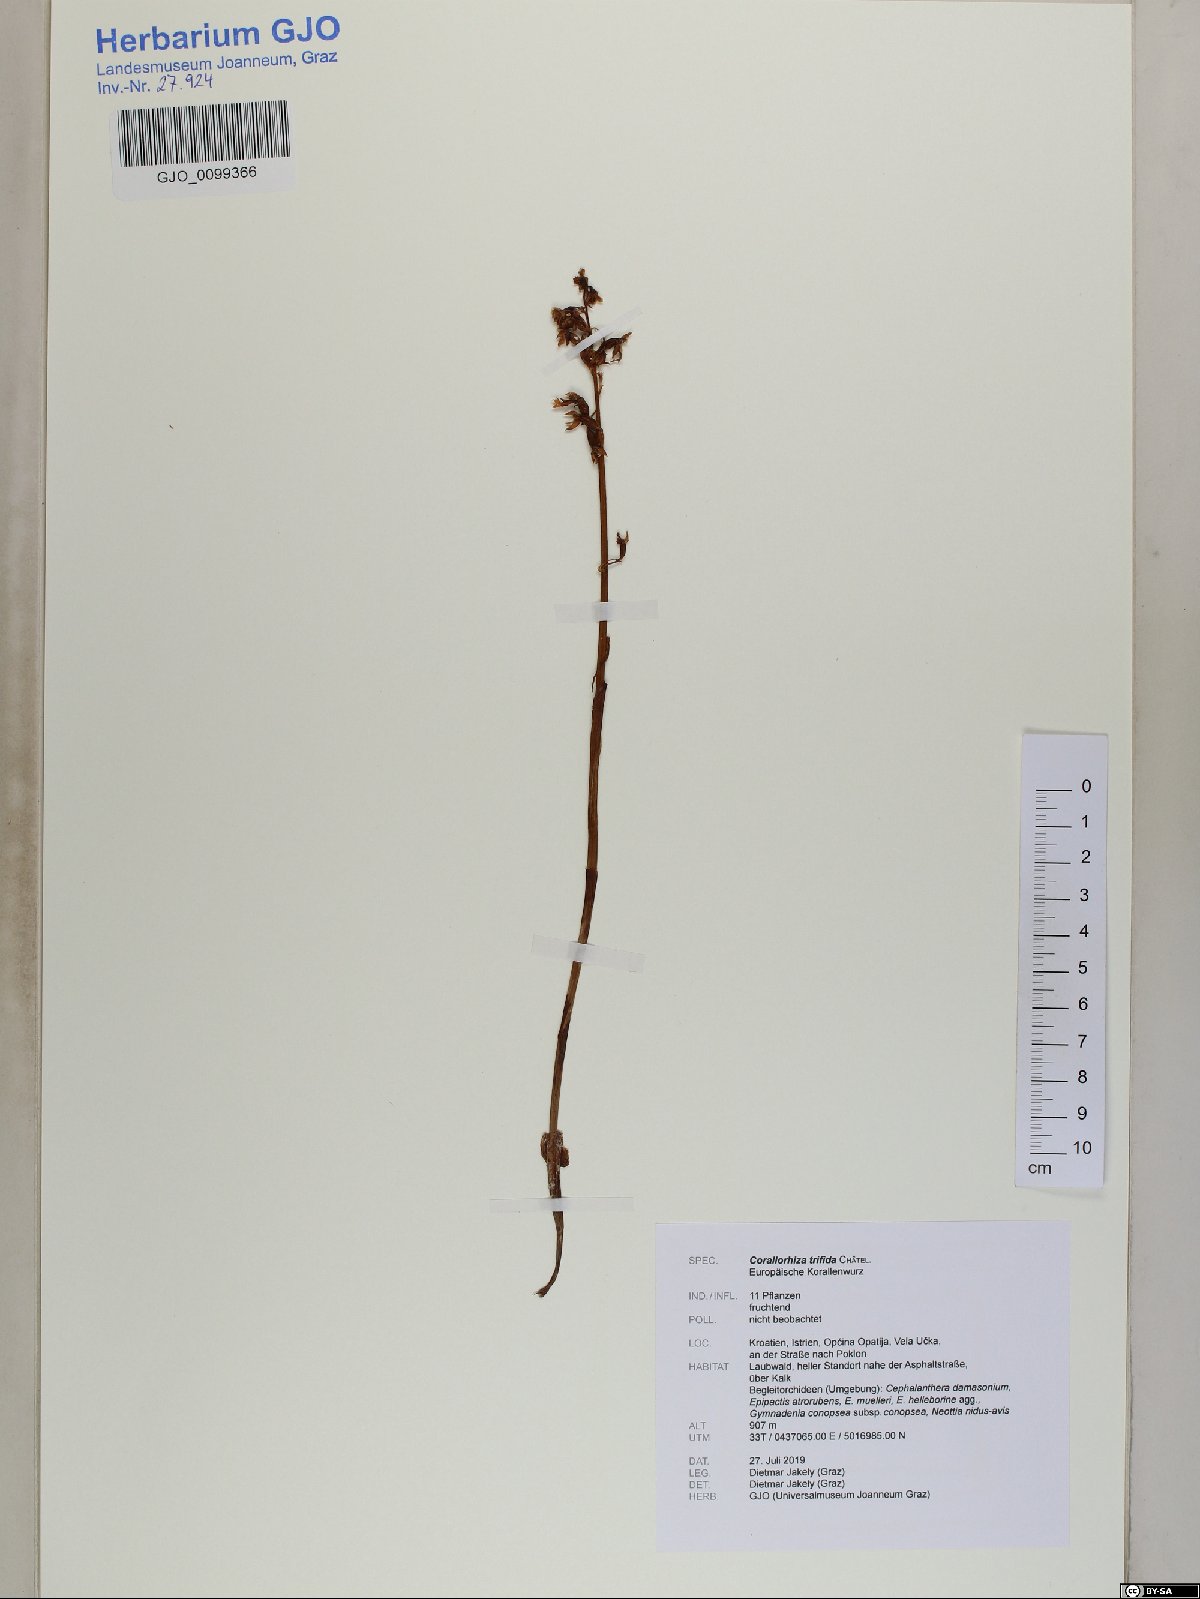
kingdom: Plantae
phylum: Tracheophyta
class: Liliopsida
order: Asparagales
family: Orchidaceae
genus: Corallorhiza
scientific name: Corallorhiza trifida
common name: Yellow coralroot
